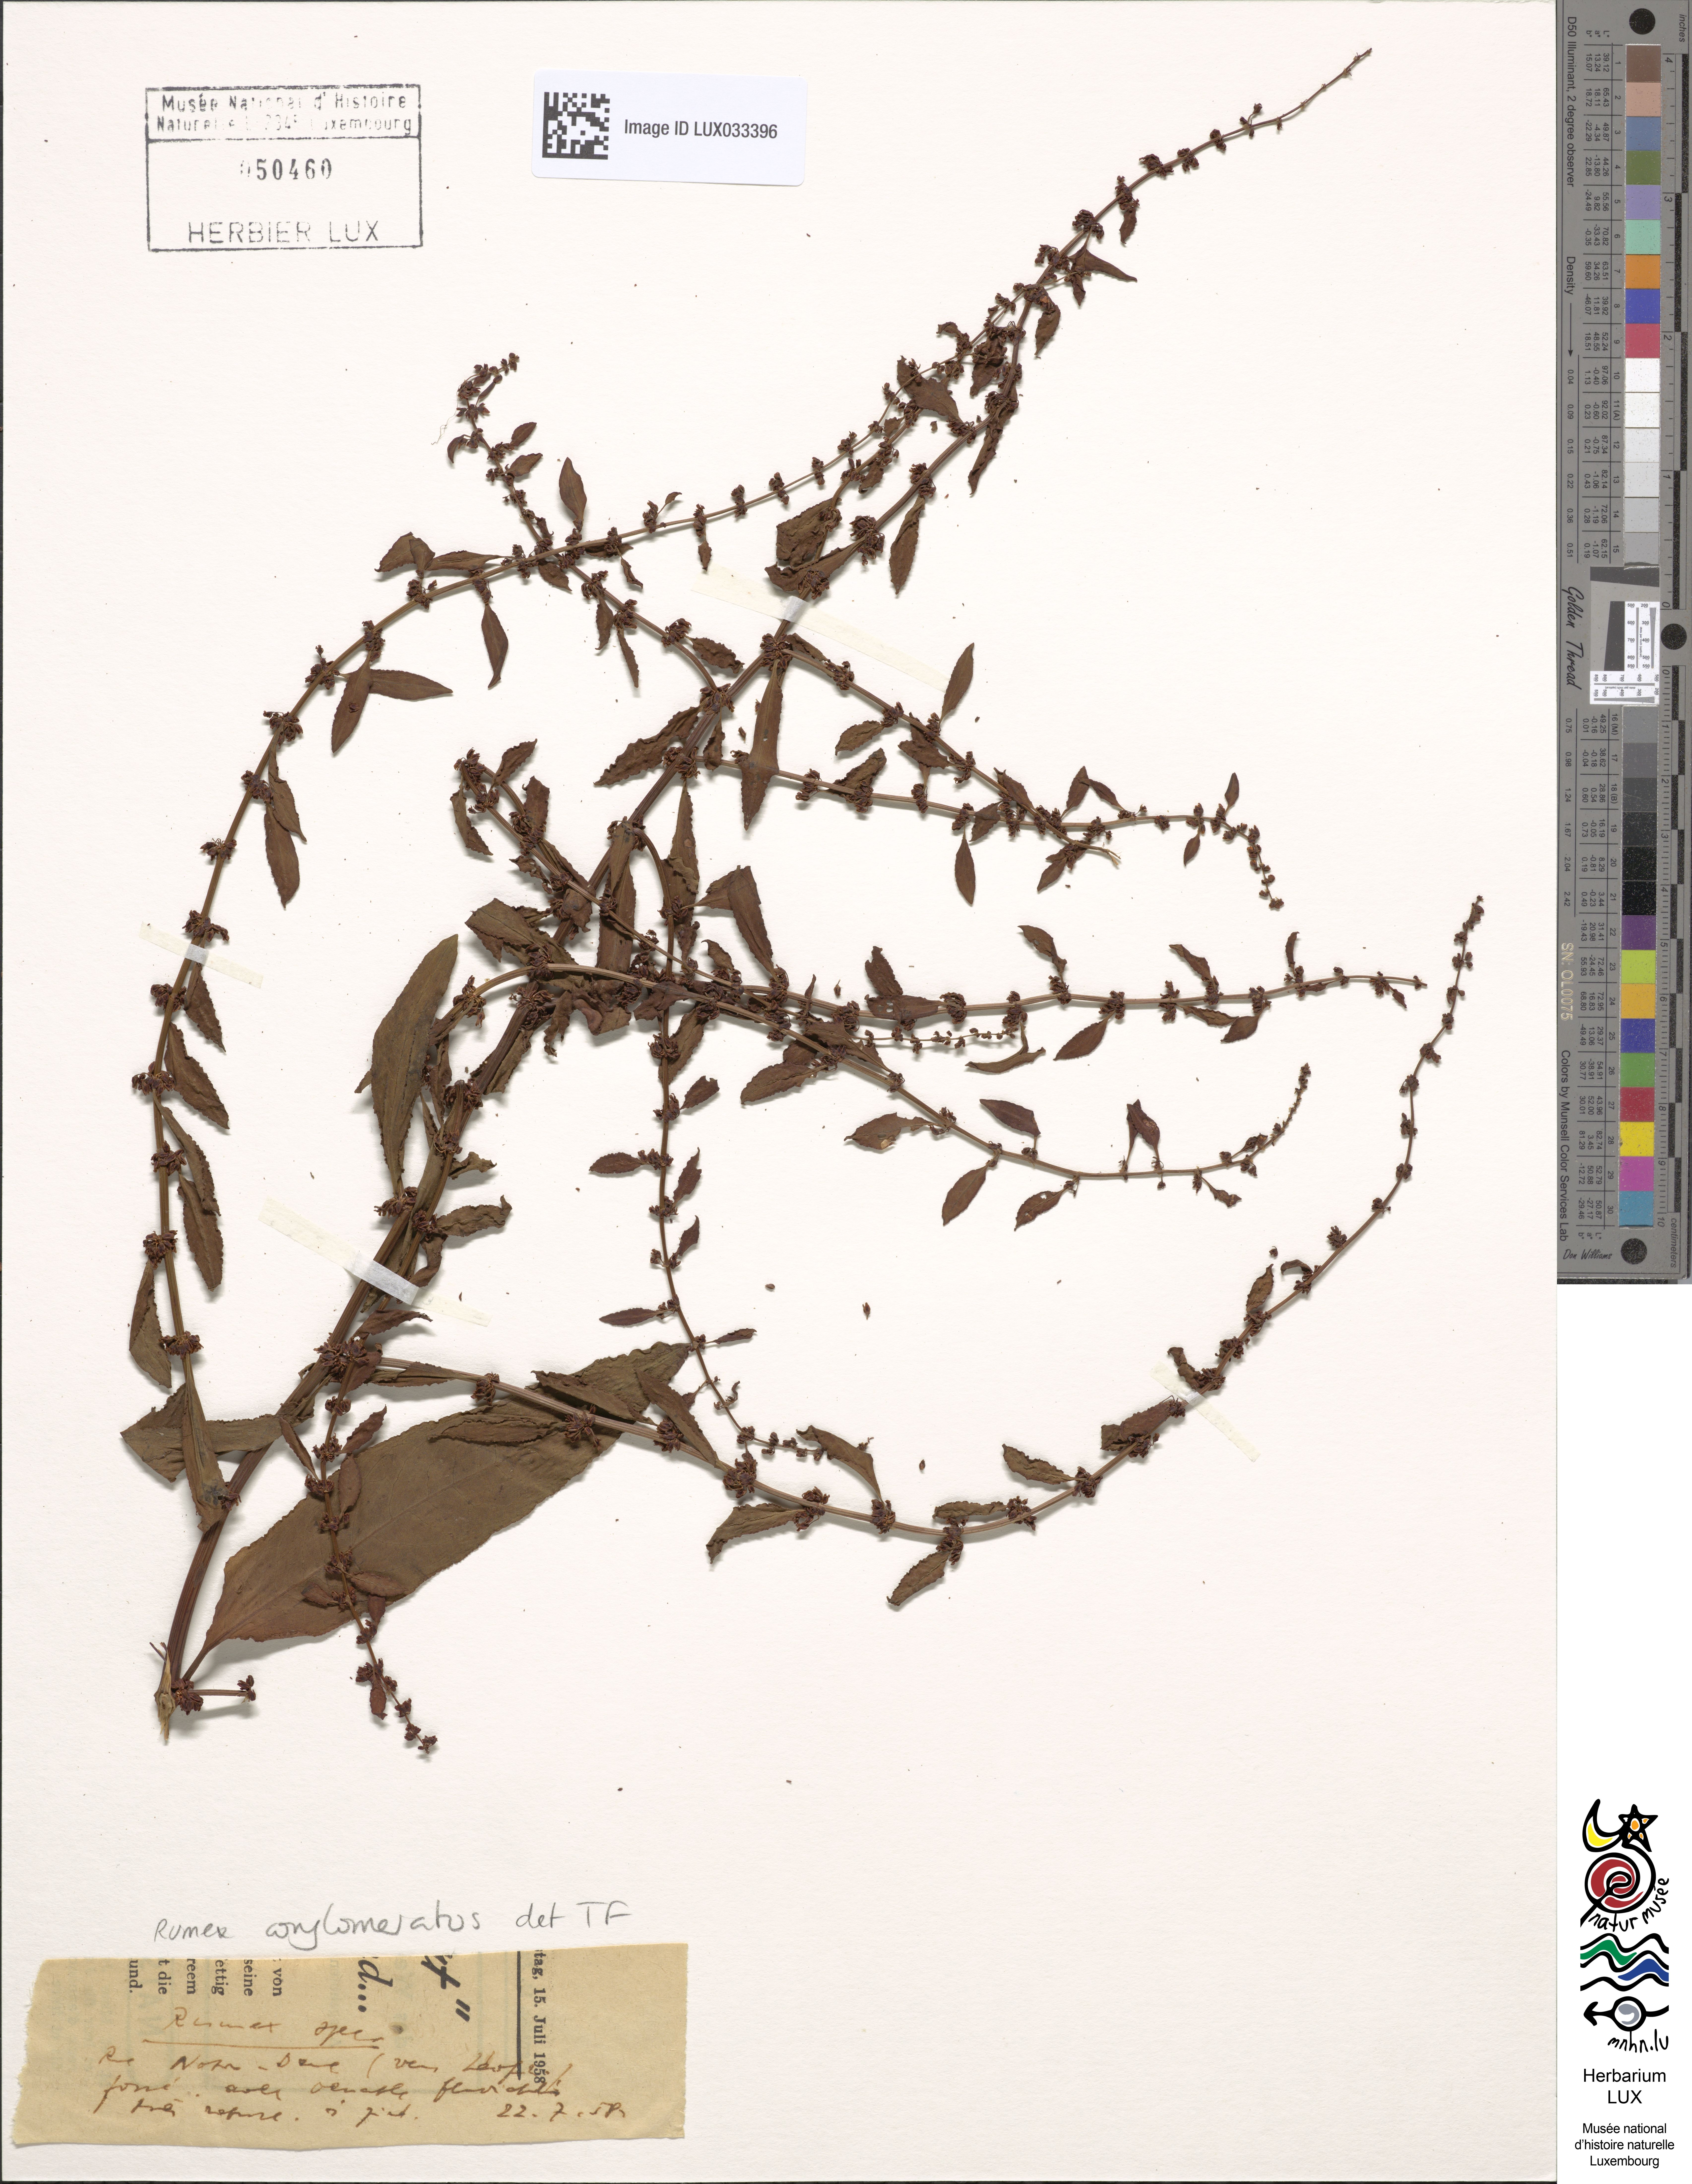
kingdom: Plantae
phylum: Tracheophyta
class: Magnoliopsida
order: Caryophyllales
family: Polygonaceae
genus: Rumex
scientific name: Rumex conglomeratus
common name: Clustered dock
